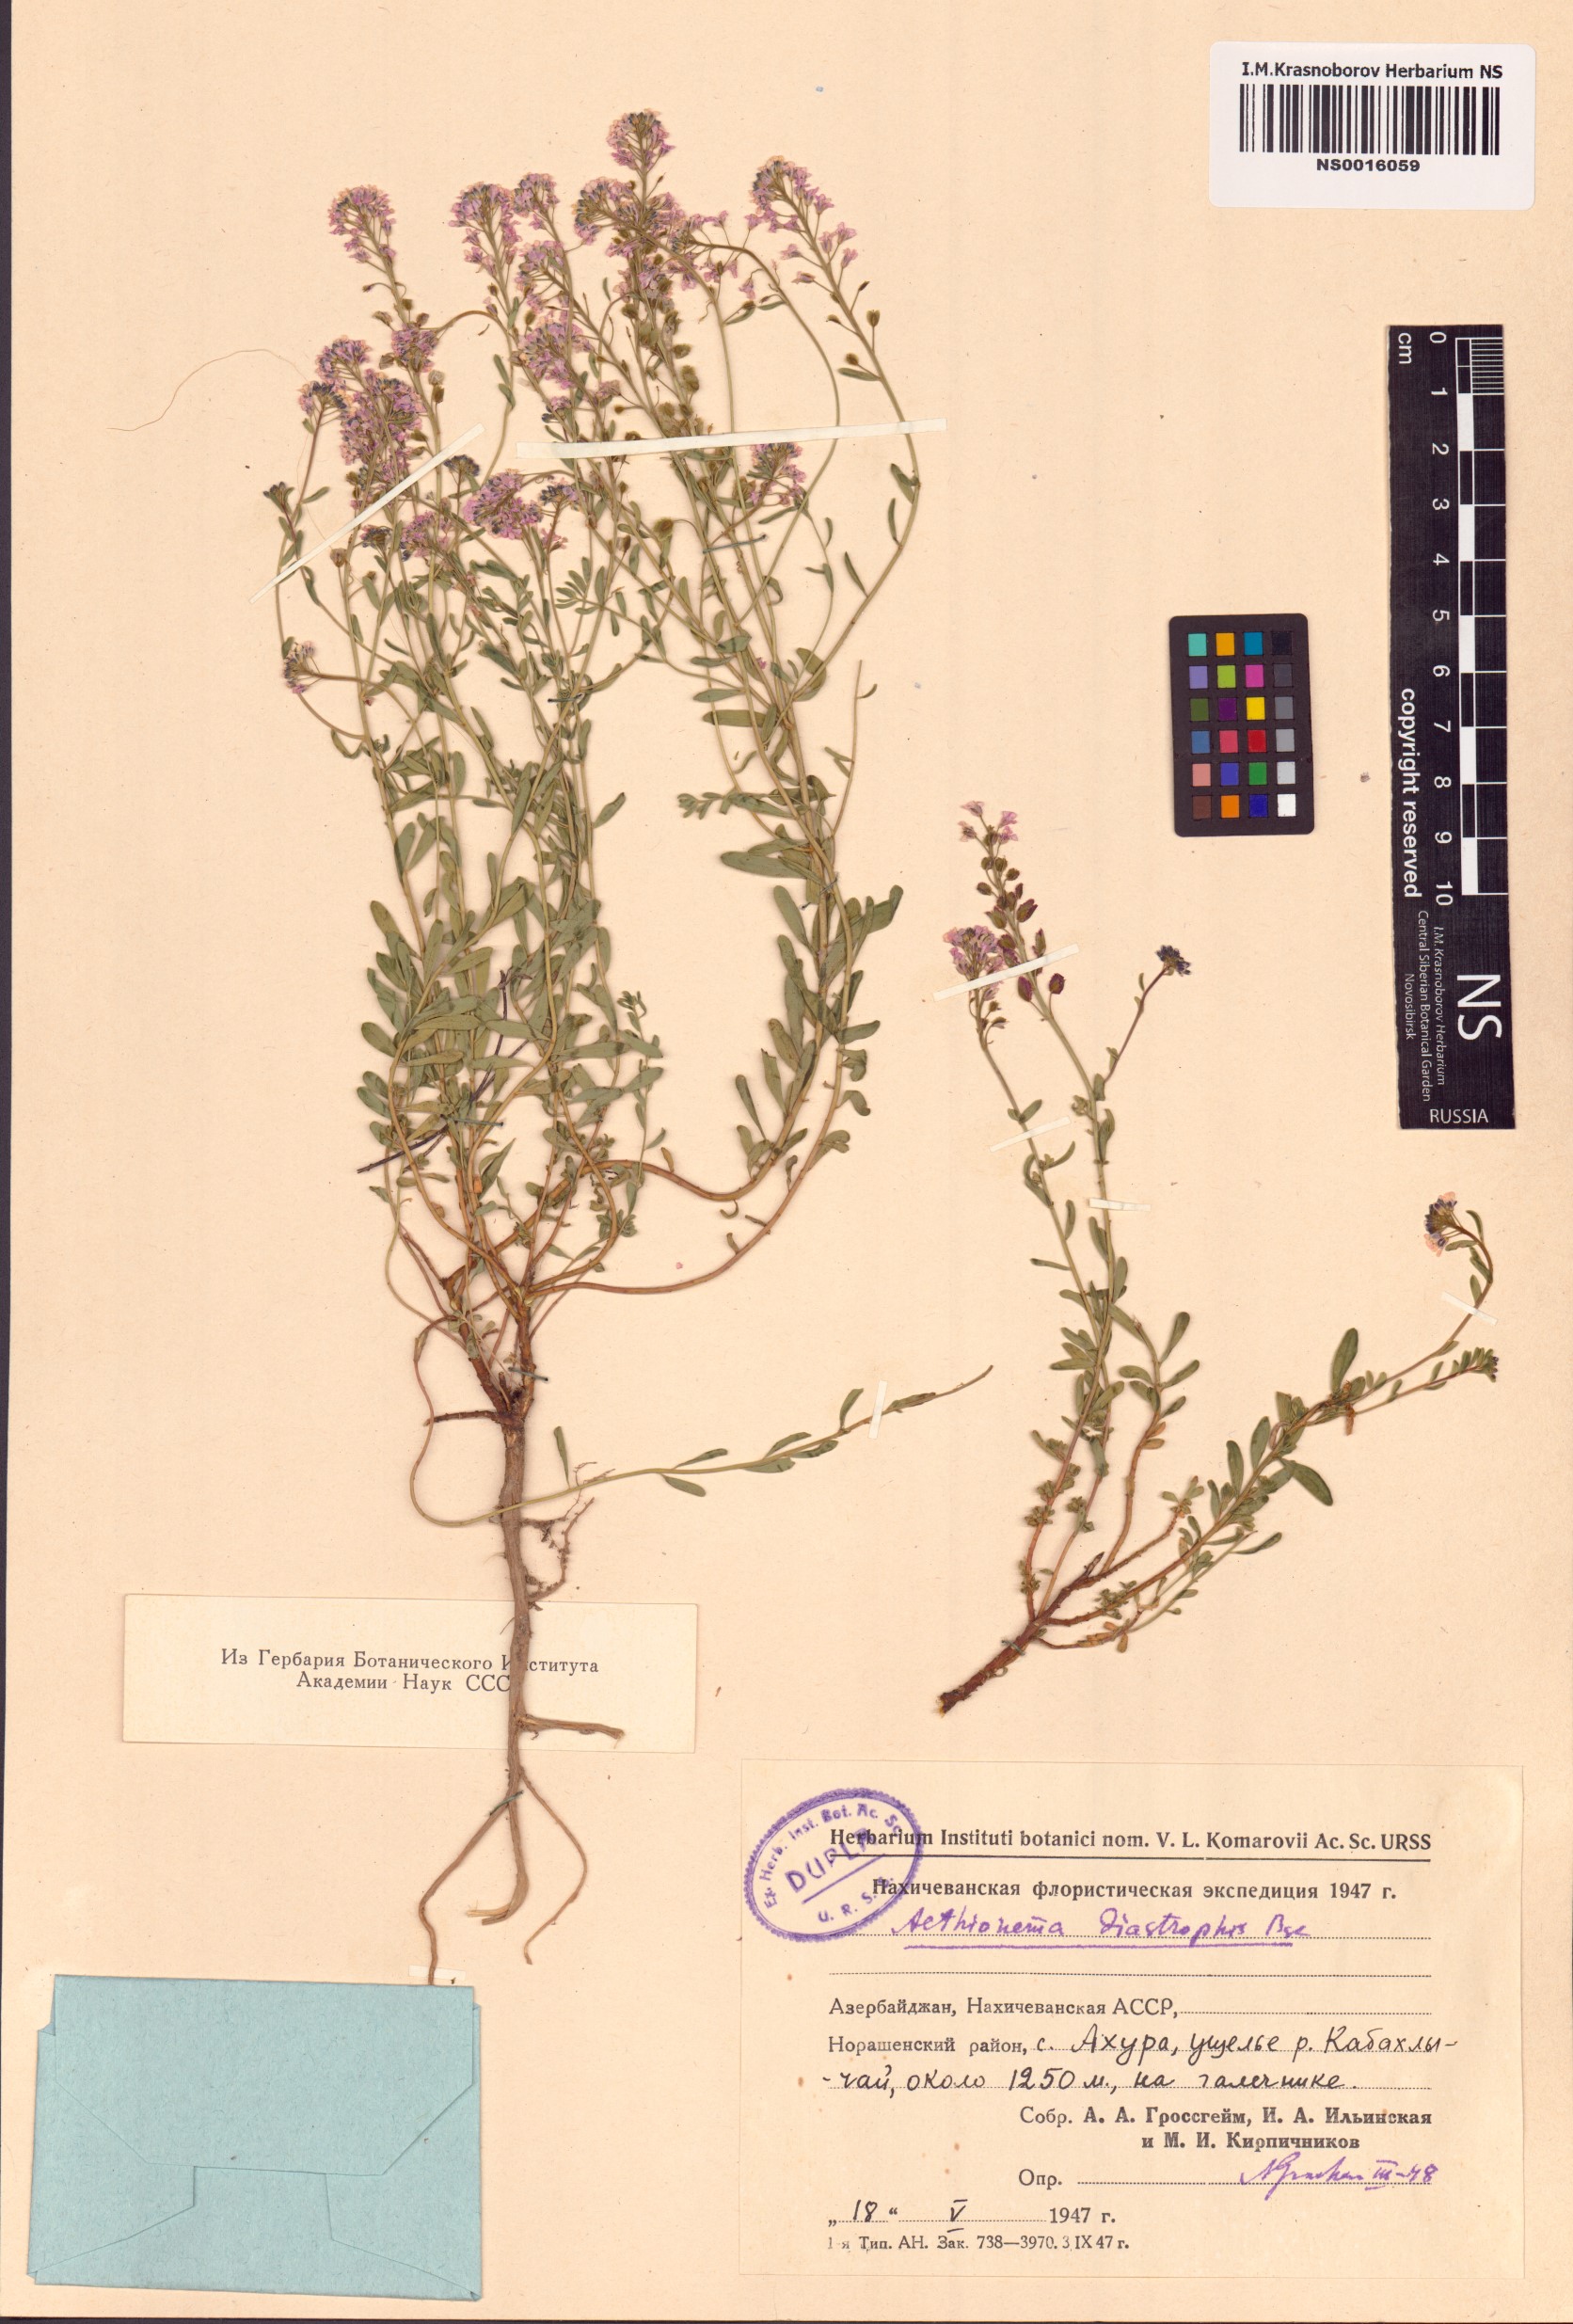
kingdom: Plantae
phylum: Tracheophyta
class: Magnoliopsida
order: Brassicales
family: Brassicaceae
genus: Aethionema
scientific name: Aethionema diastrophis
